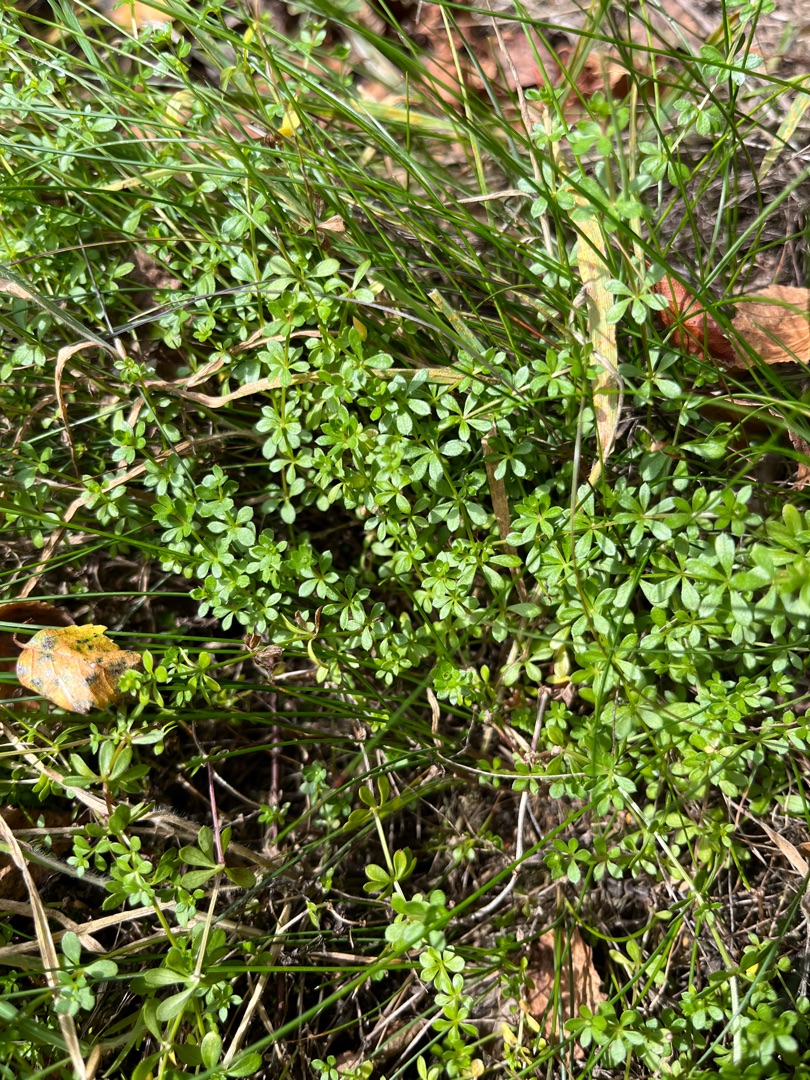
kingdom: Plantae
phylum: Tracheophyta
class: Magnoliopsida
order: Gentianales
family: Rubiaceae
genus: Galium
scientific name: Galium saxatile
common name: Lyng-snerre
